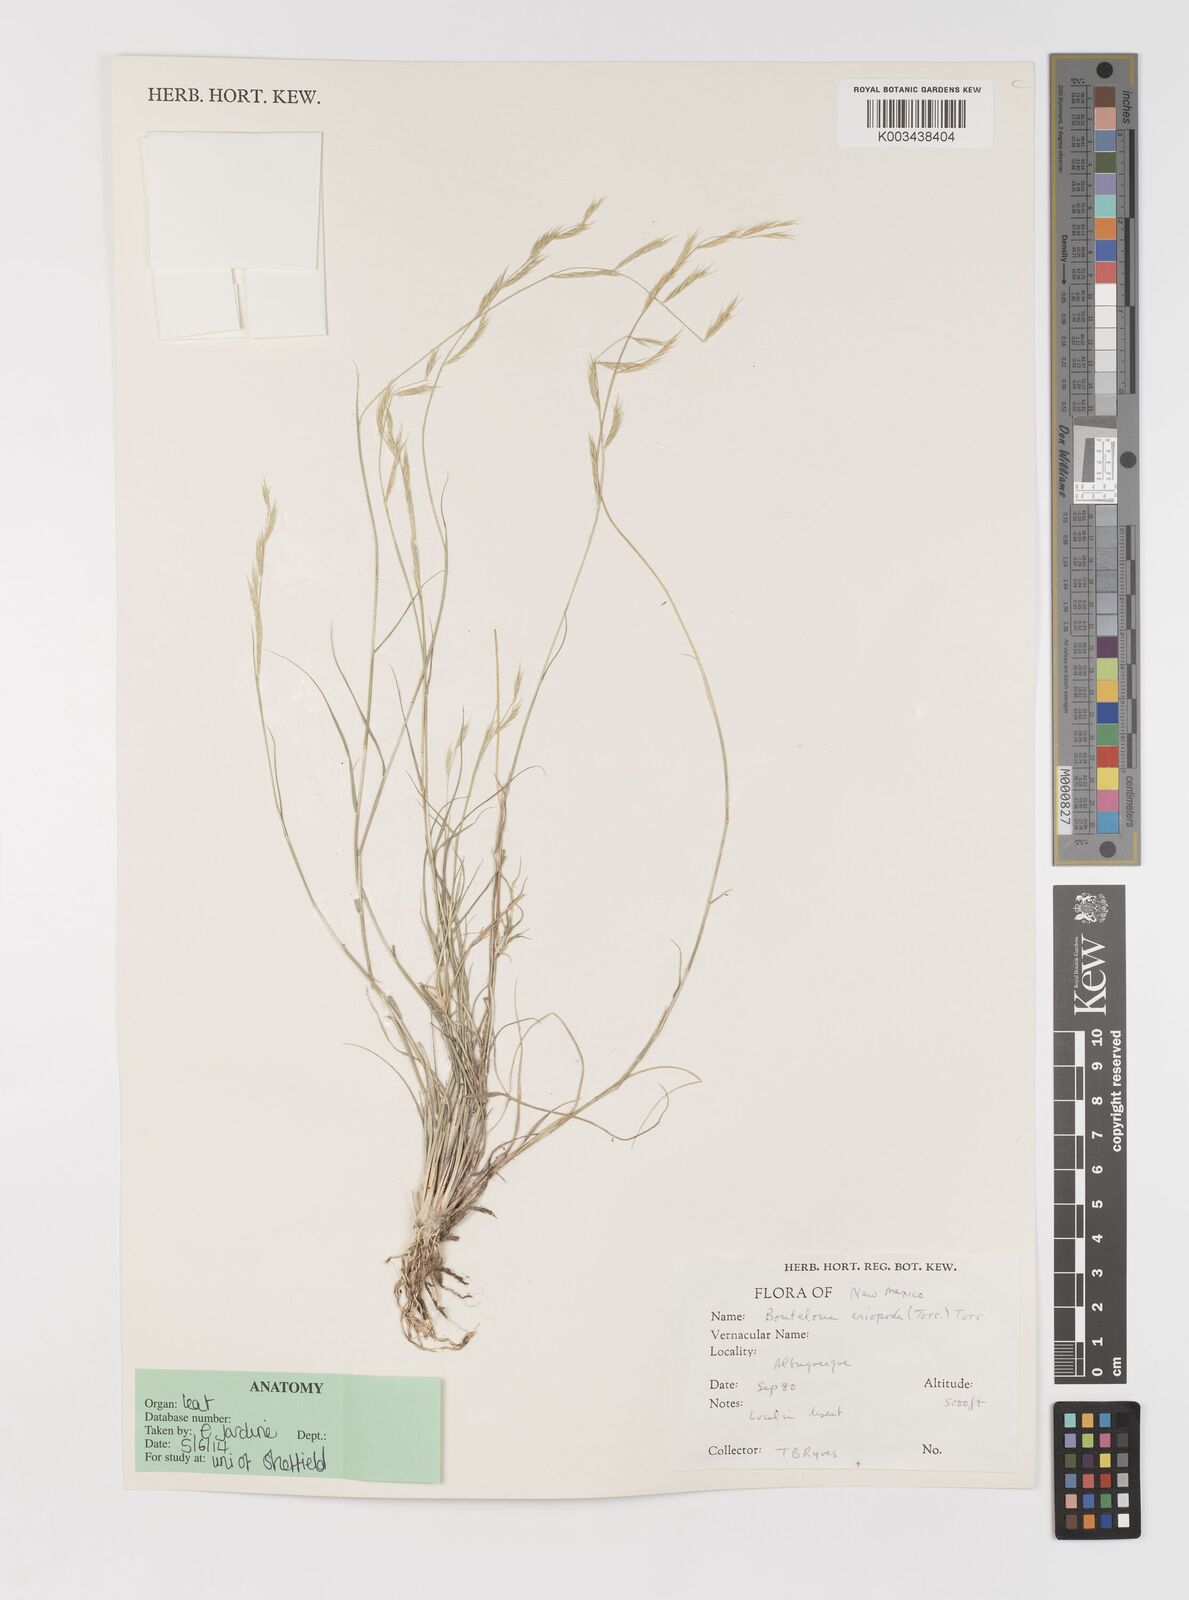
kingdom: Plantae
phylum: Tracheophyta
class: Liliopsida
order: Poales
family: Poaceae
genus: Bouteloua
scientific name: Bouteloua eriopoda
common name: Woolly foot grama
